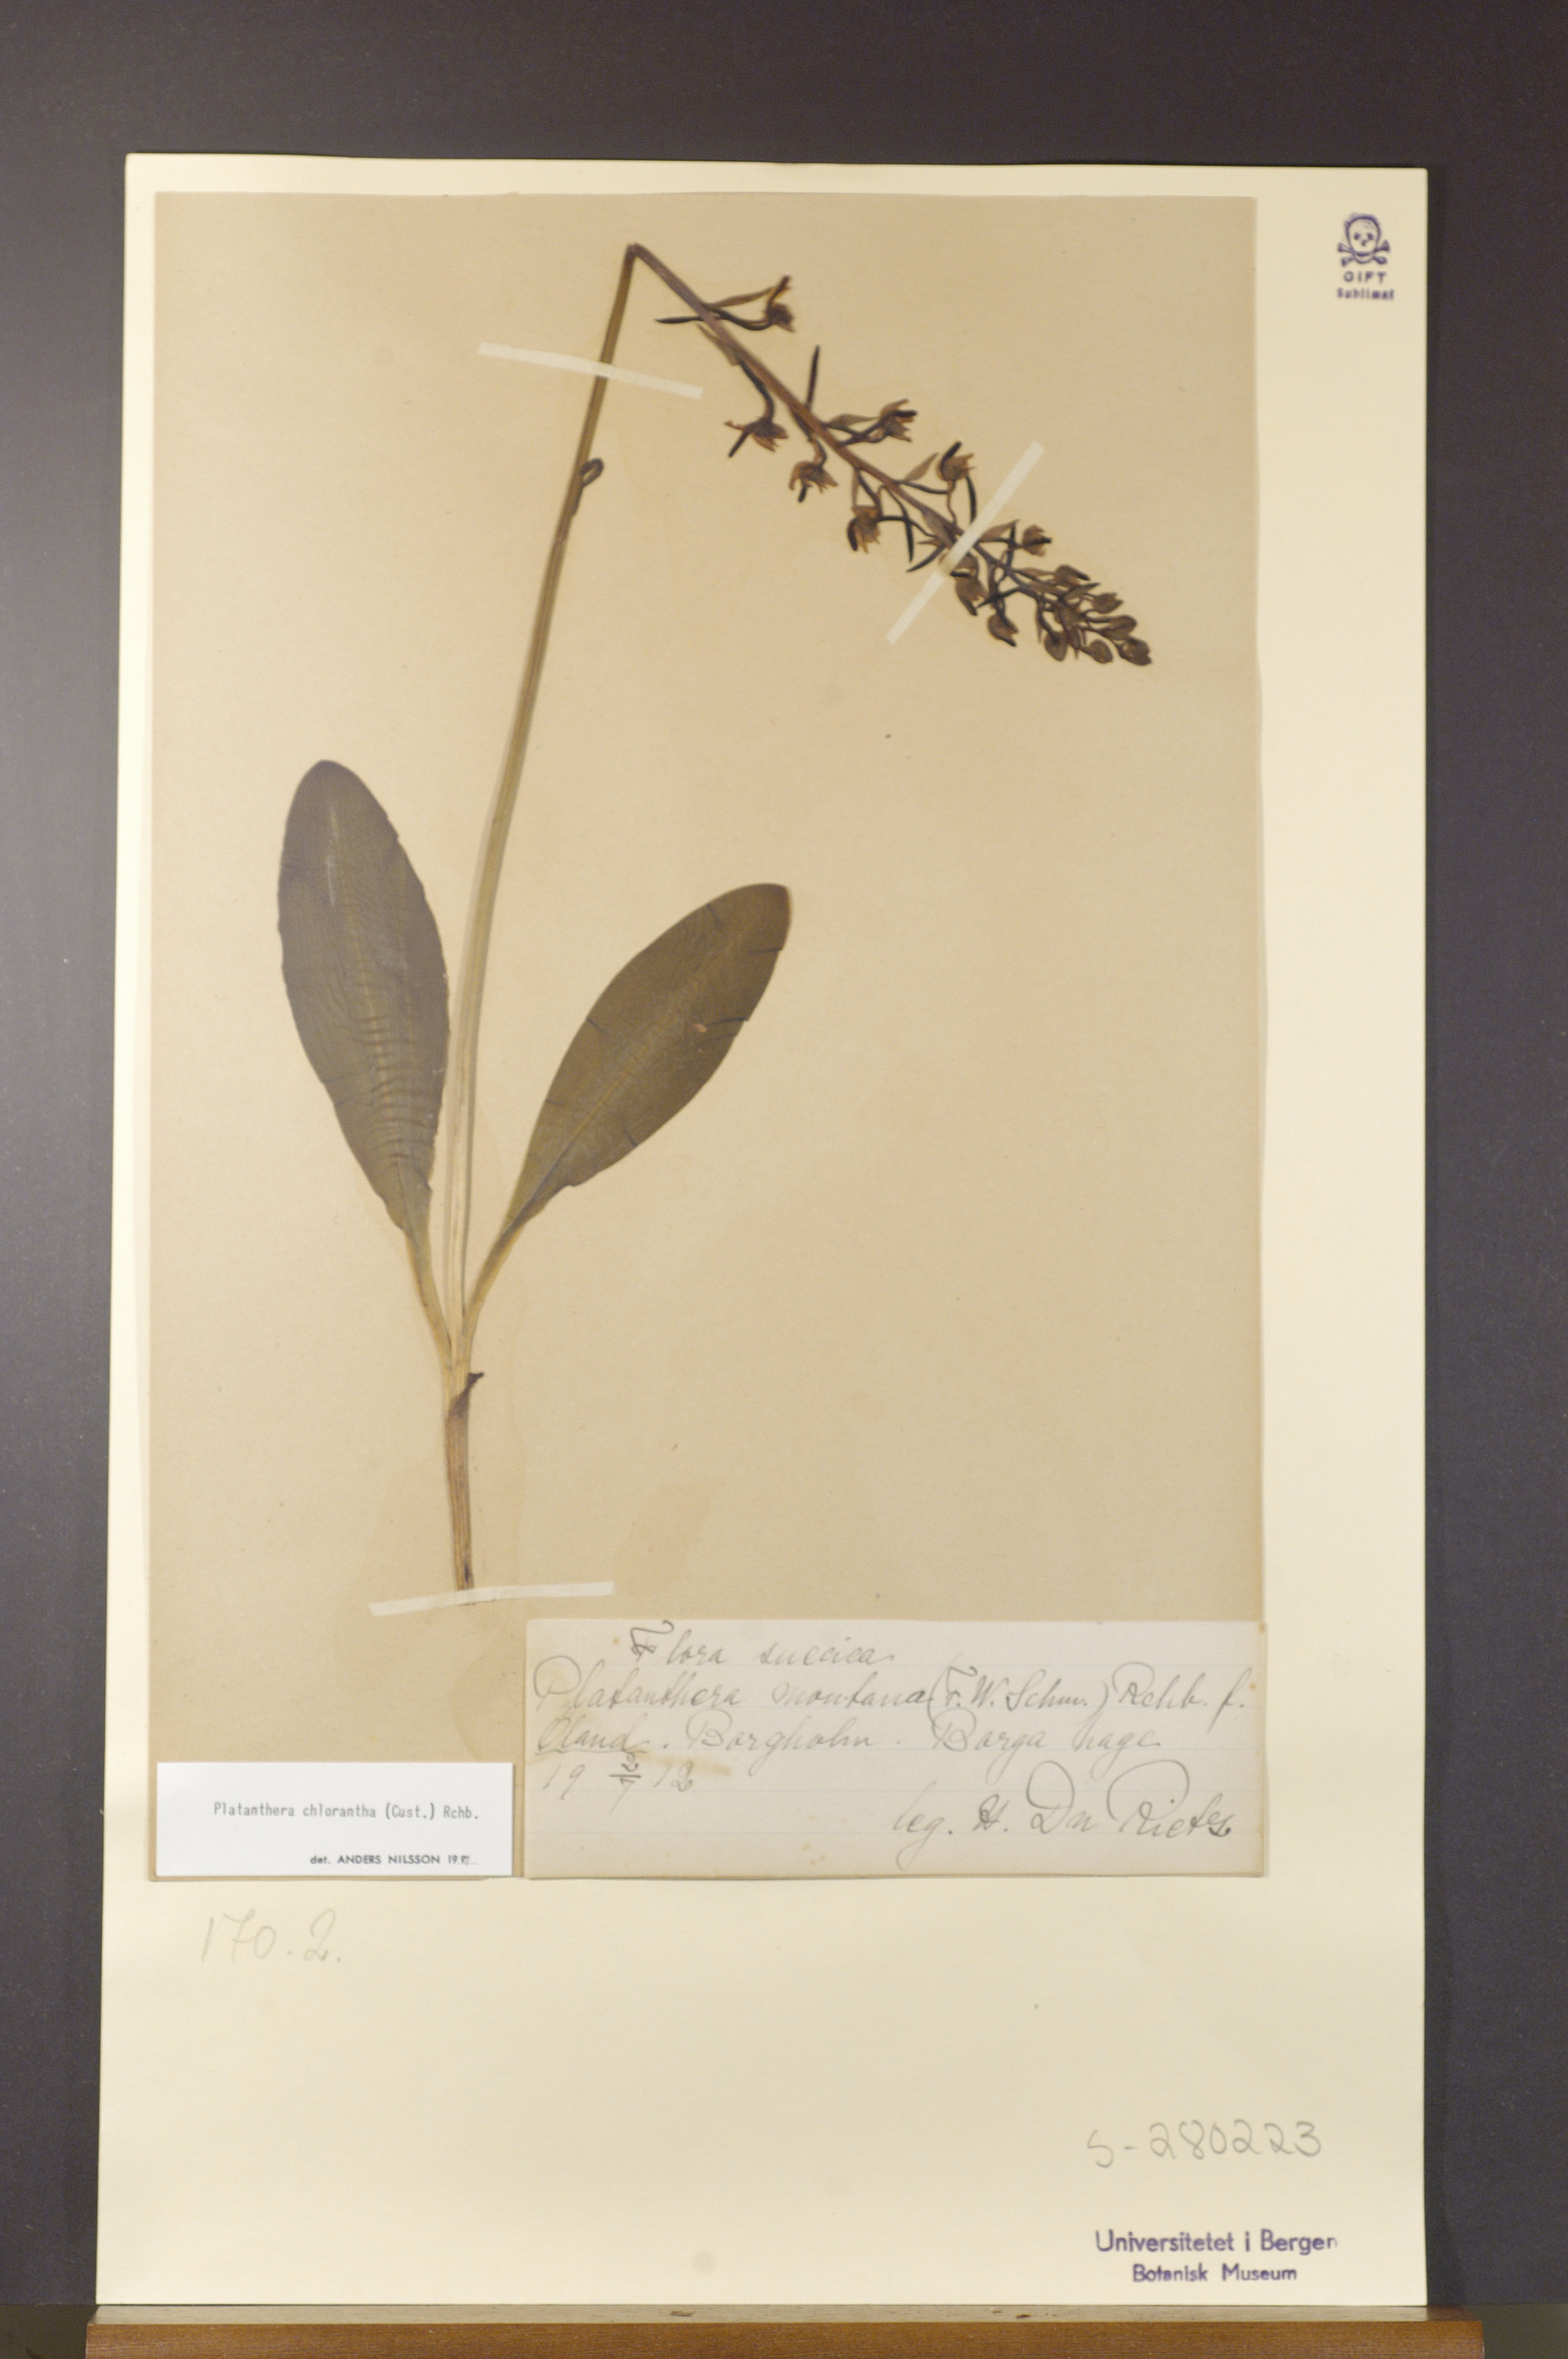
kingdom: Plantae
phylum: Tracheophyta
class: Liliopsida
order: Asparagales
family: Orchidaceae
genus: Platanthera
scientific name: Platanthera chlorantha
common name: Greater butterfly-orchid
